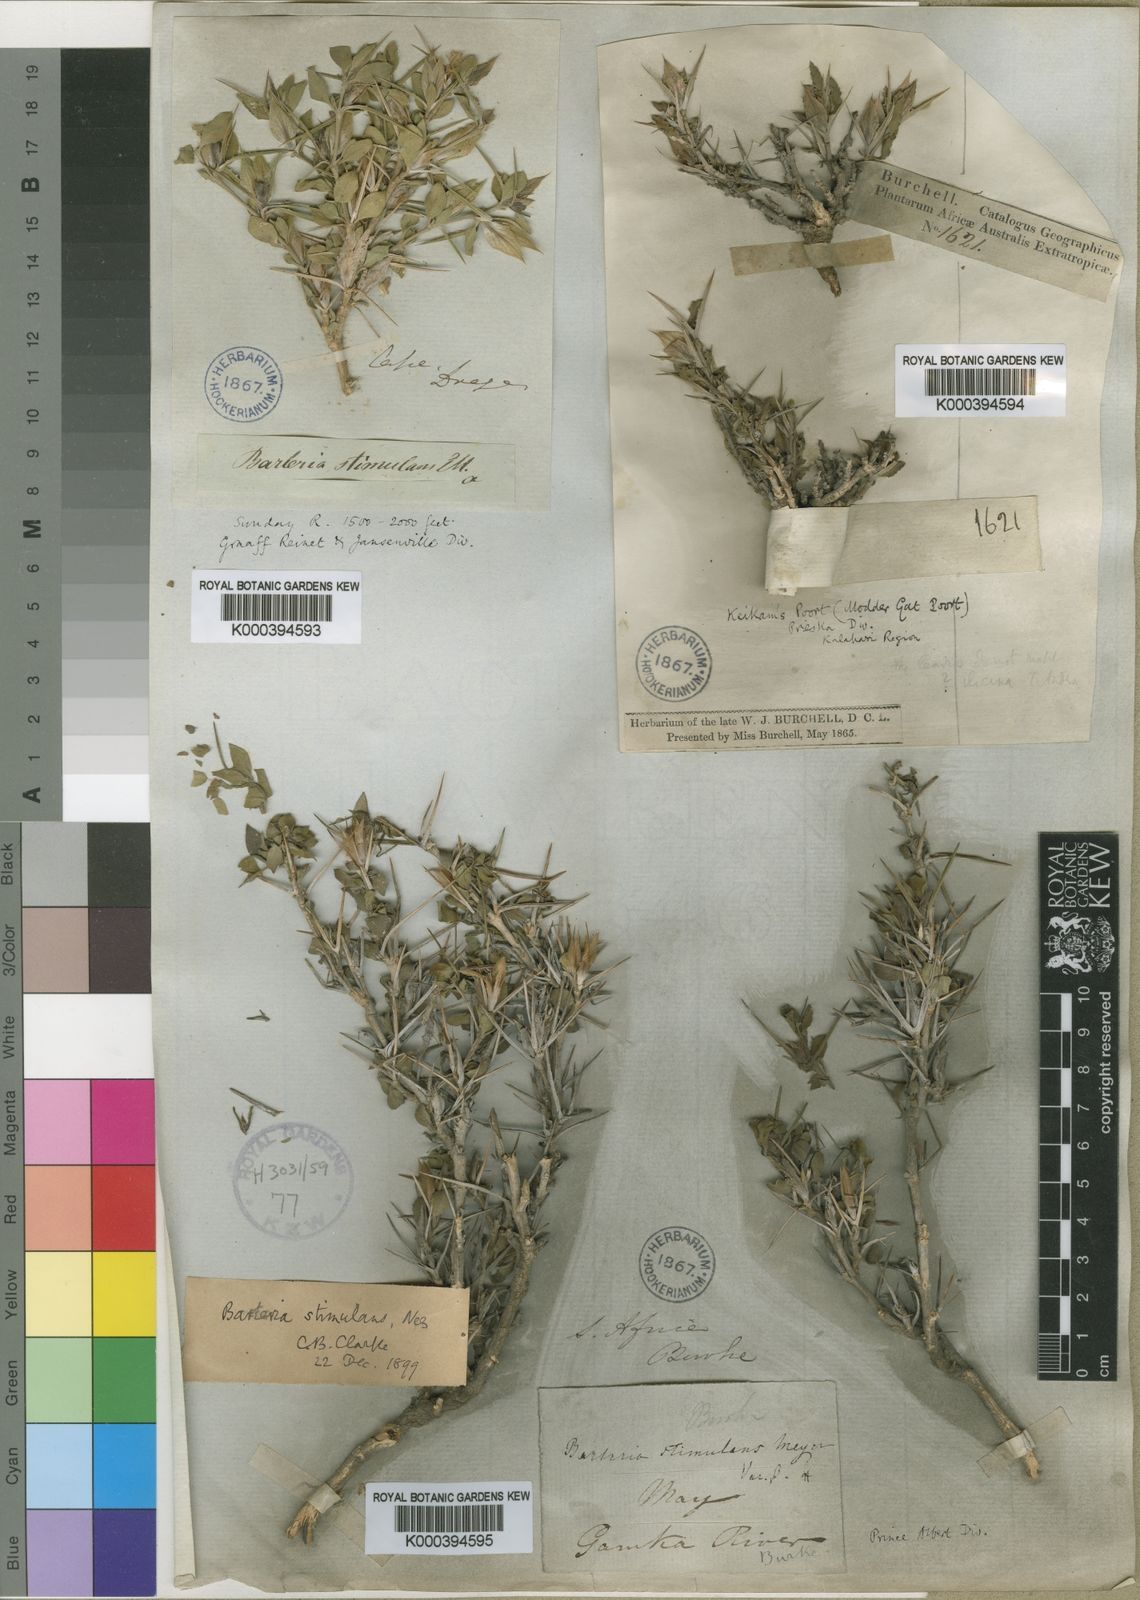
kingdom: Plantae
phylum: Tracheophyta
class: Magnoliopsida
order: Lamiales
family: Acanthaceae
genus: Barleria
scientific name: Barleria stimulans
